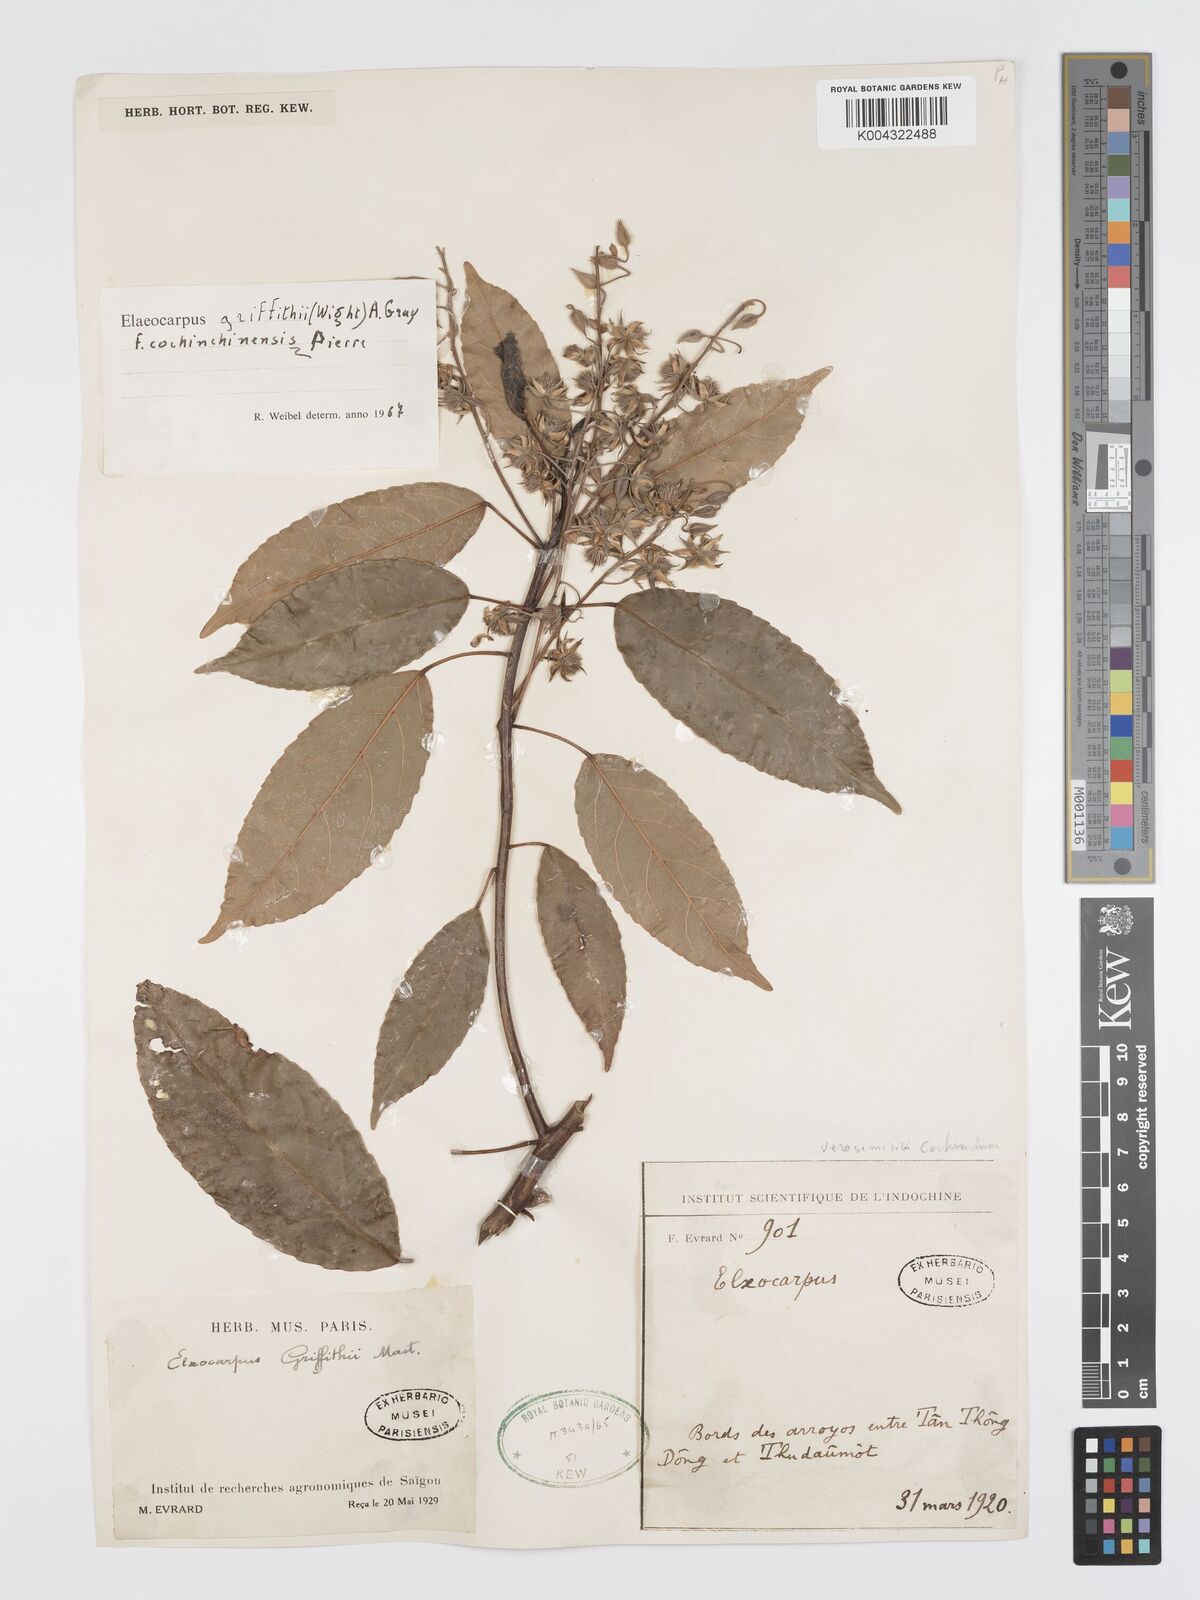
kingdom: Plantae
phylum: Tracheophyta
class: Magnoliopsida
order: Oxalidales
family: Elaeocarpaceae
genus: Elaeocarpus
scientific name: Elaeocarpus griffithii
